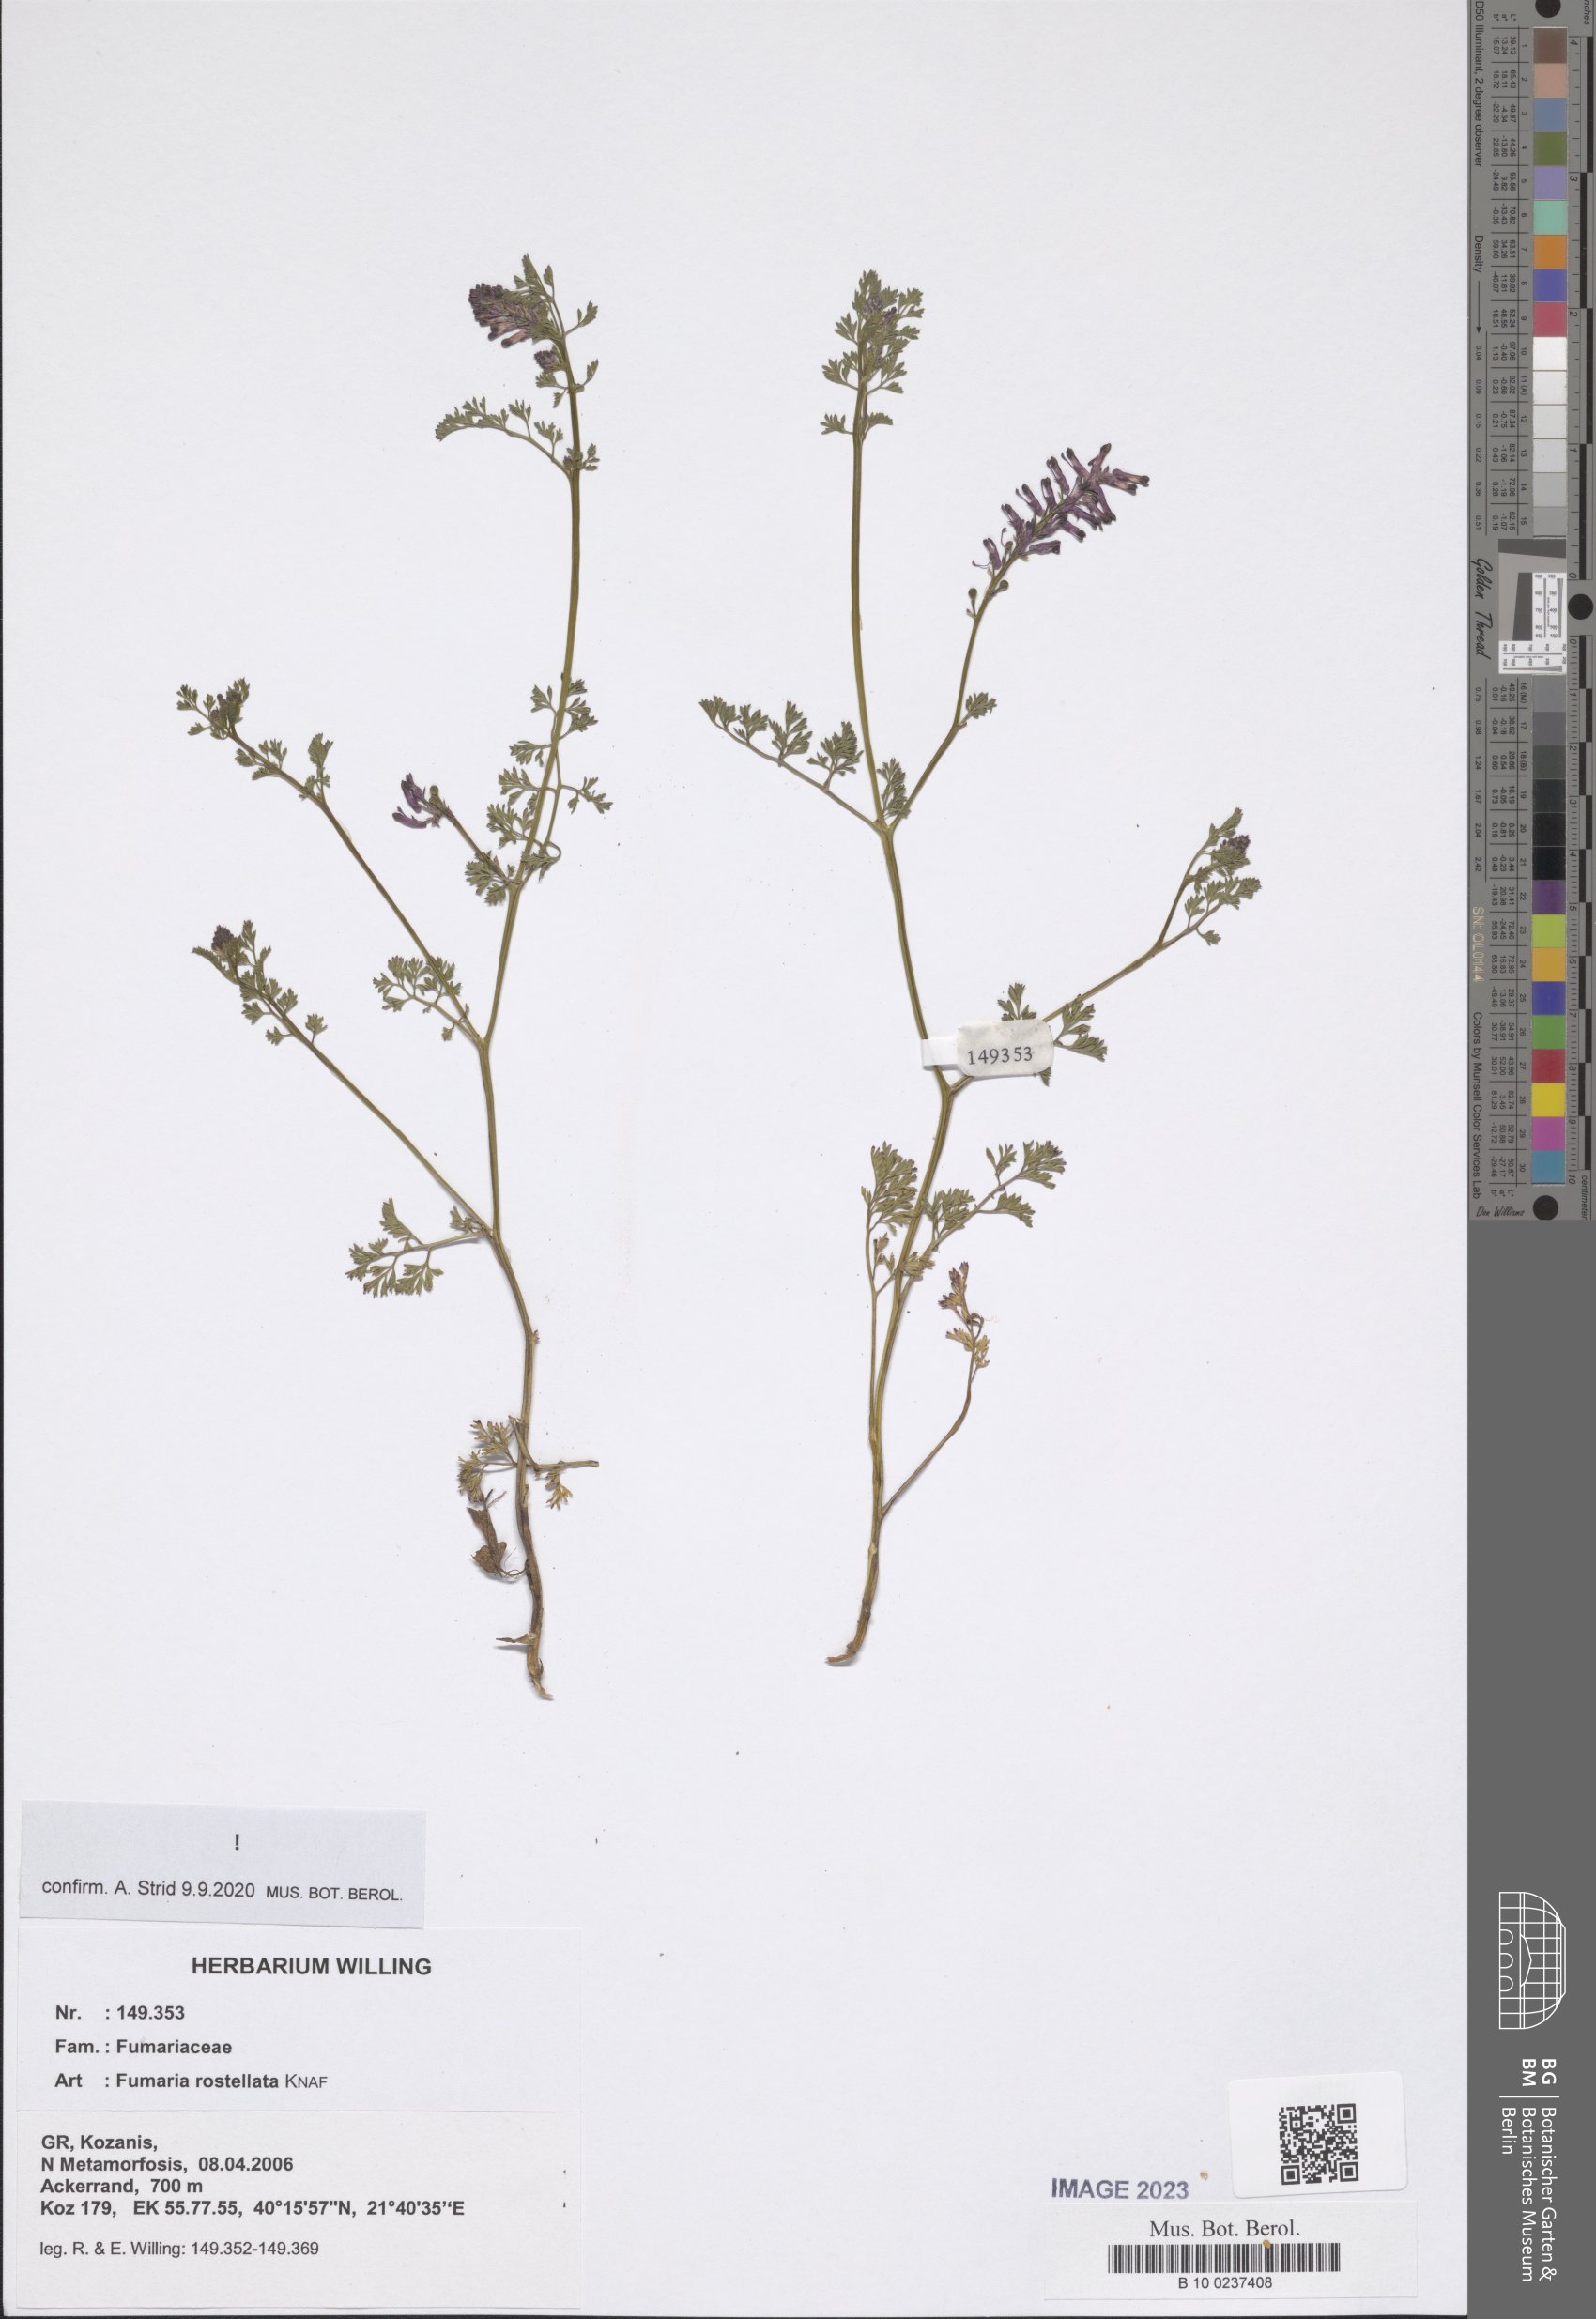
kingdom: Plantae
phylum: Tracheophyta
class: Magnoliopsida
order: Ranunculales
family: Papaveraceae
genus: Fumaria
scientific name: Fumaria rostellata
